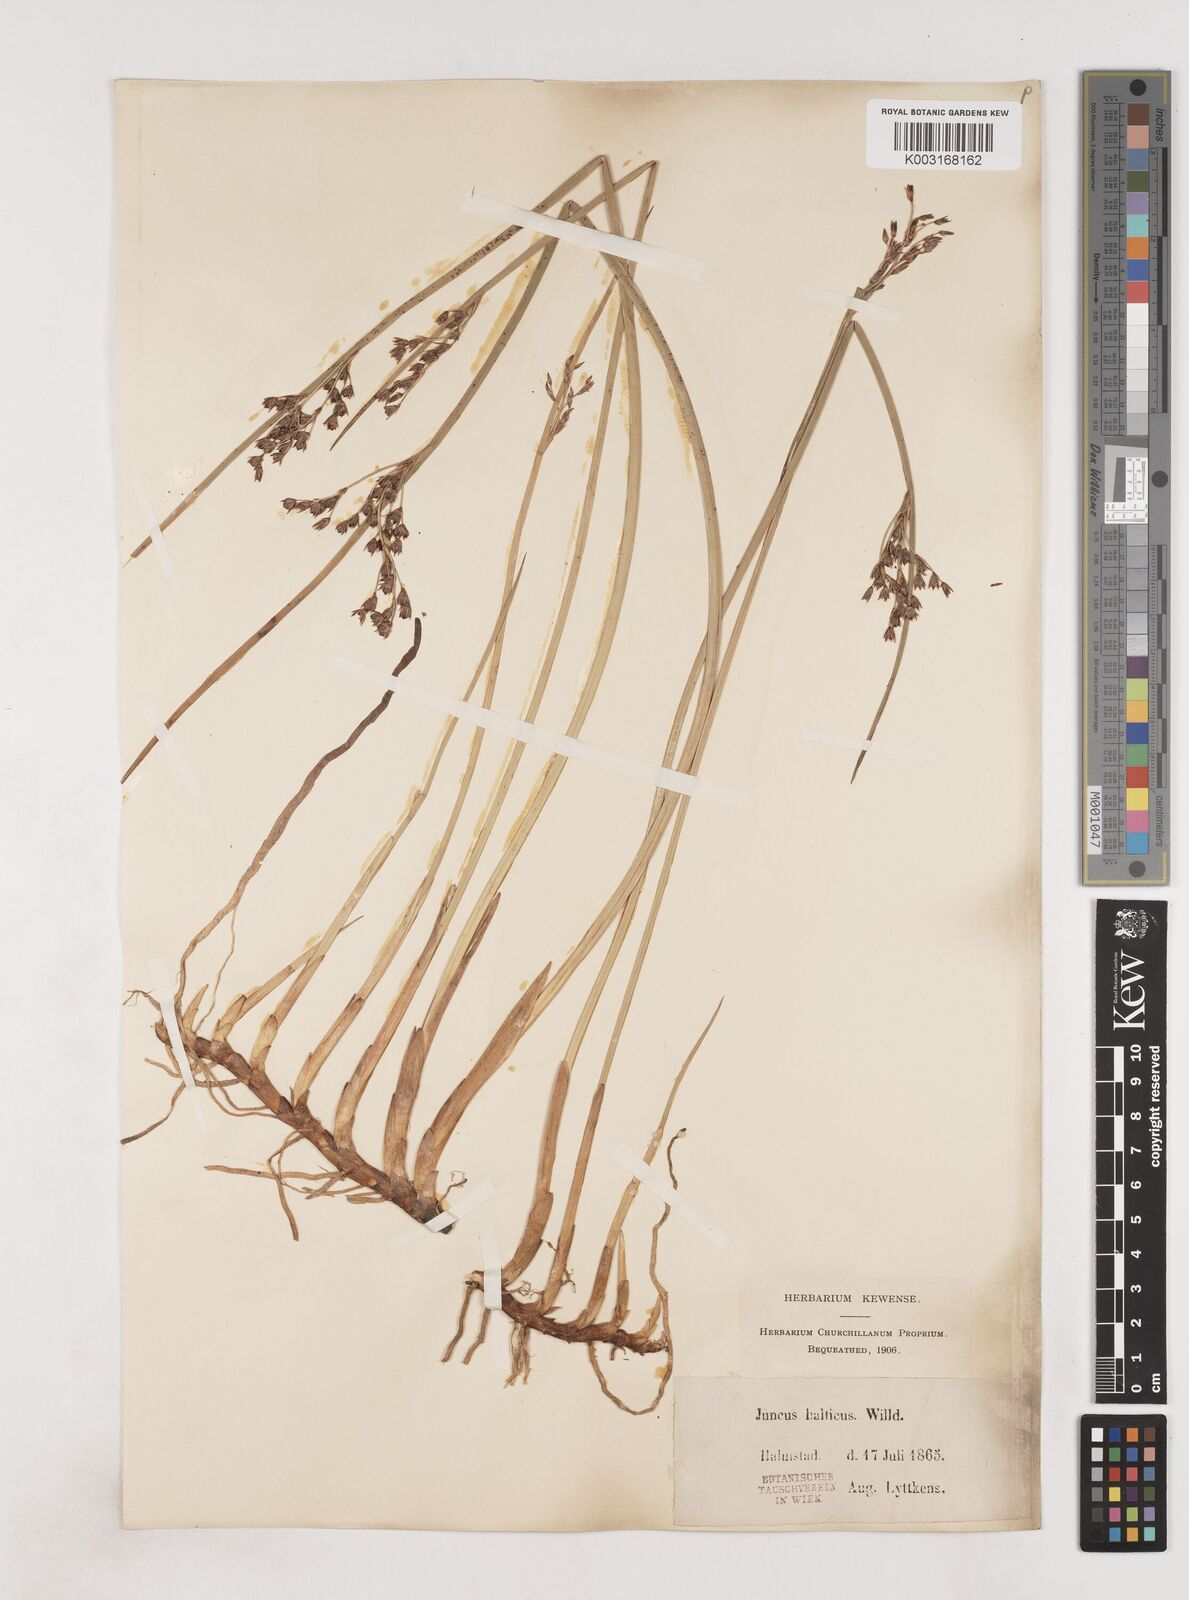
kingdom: Plantae
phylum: Tracheophyta
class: Liliopsida
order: Poales
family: Juncaceae
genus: Juncus
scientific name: Juncus balticus
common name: Baltic rush
